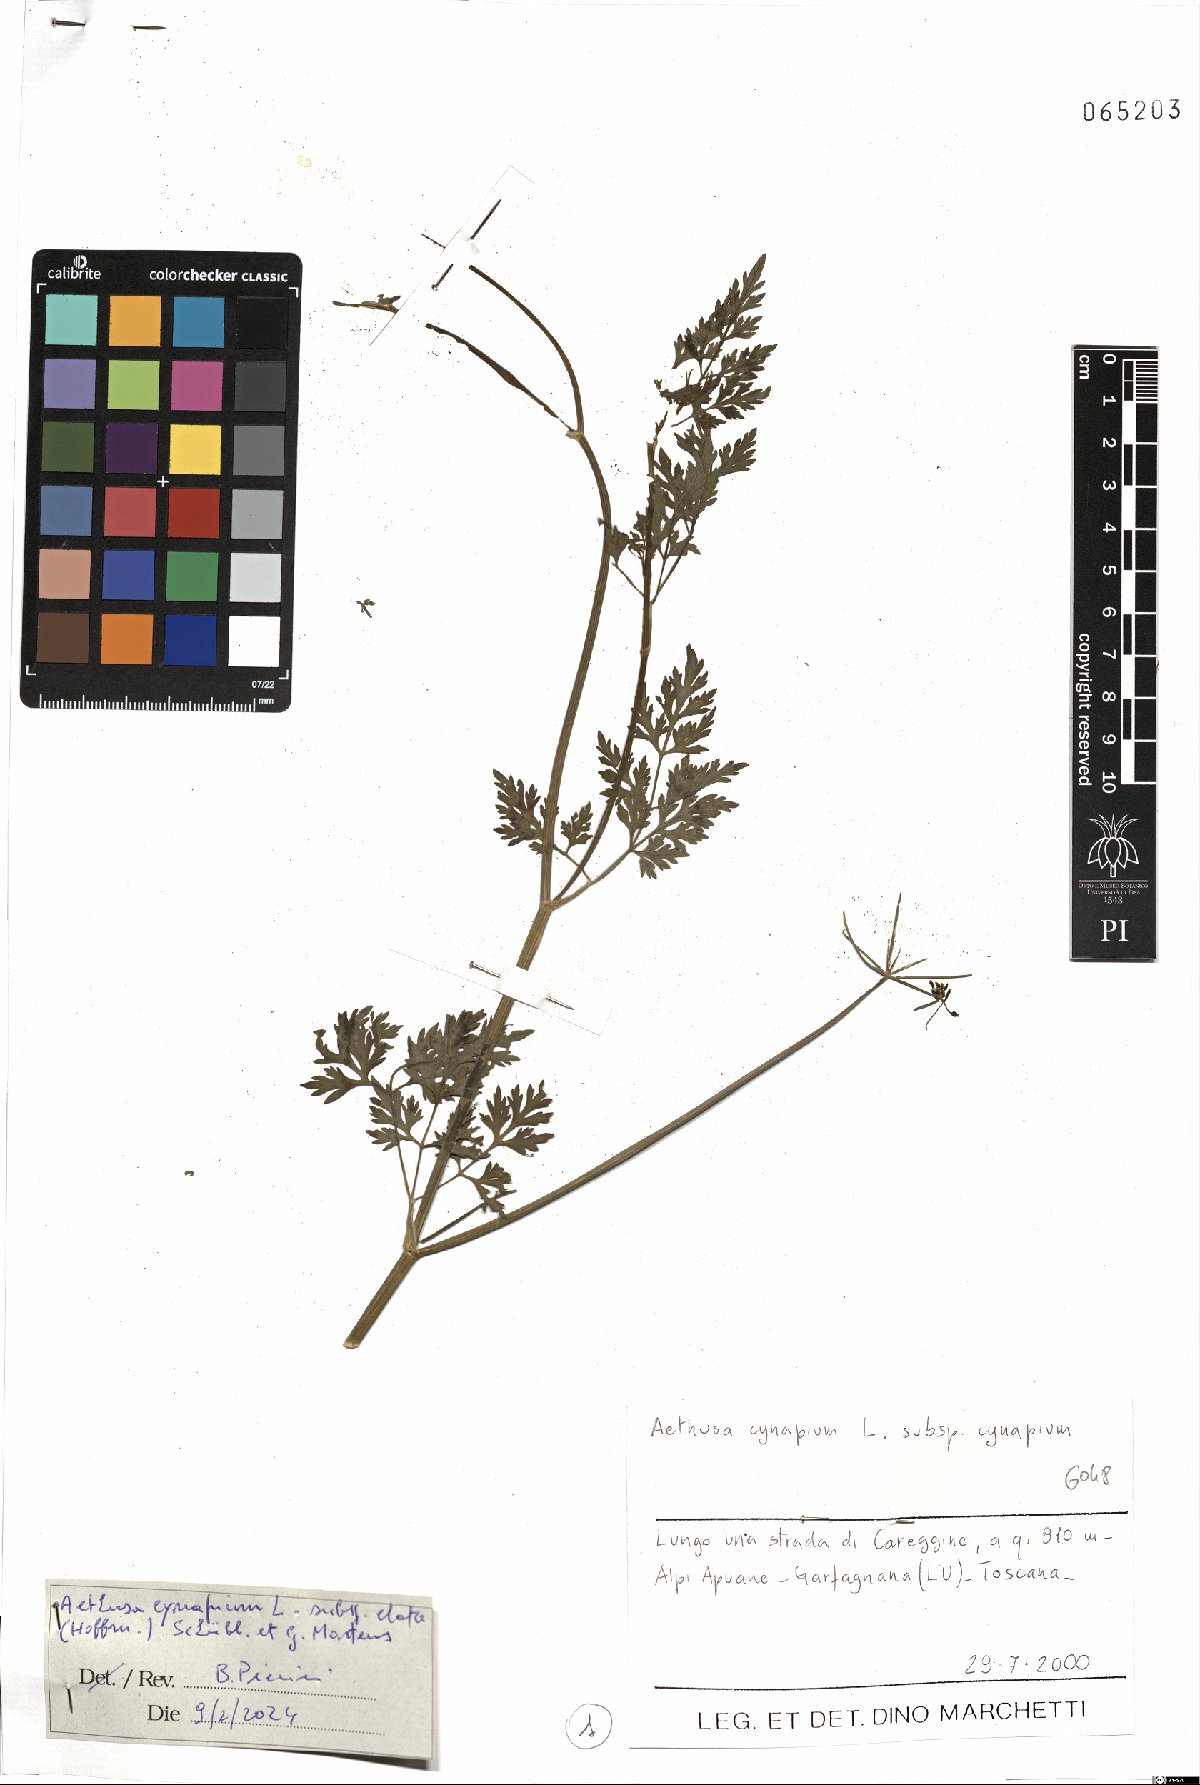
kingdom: Plantae
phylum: Tracheophyta
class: Magnoliopsida
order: Apiales
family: Apiaceae
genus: Aethusa
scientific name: Aethusa cynapium
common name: Fool's parsley
